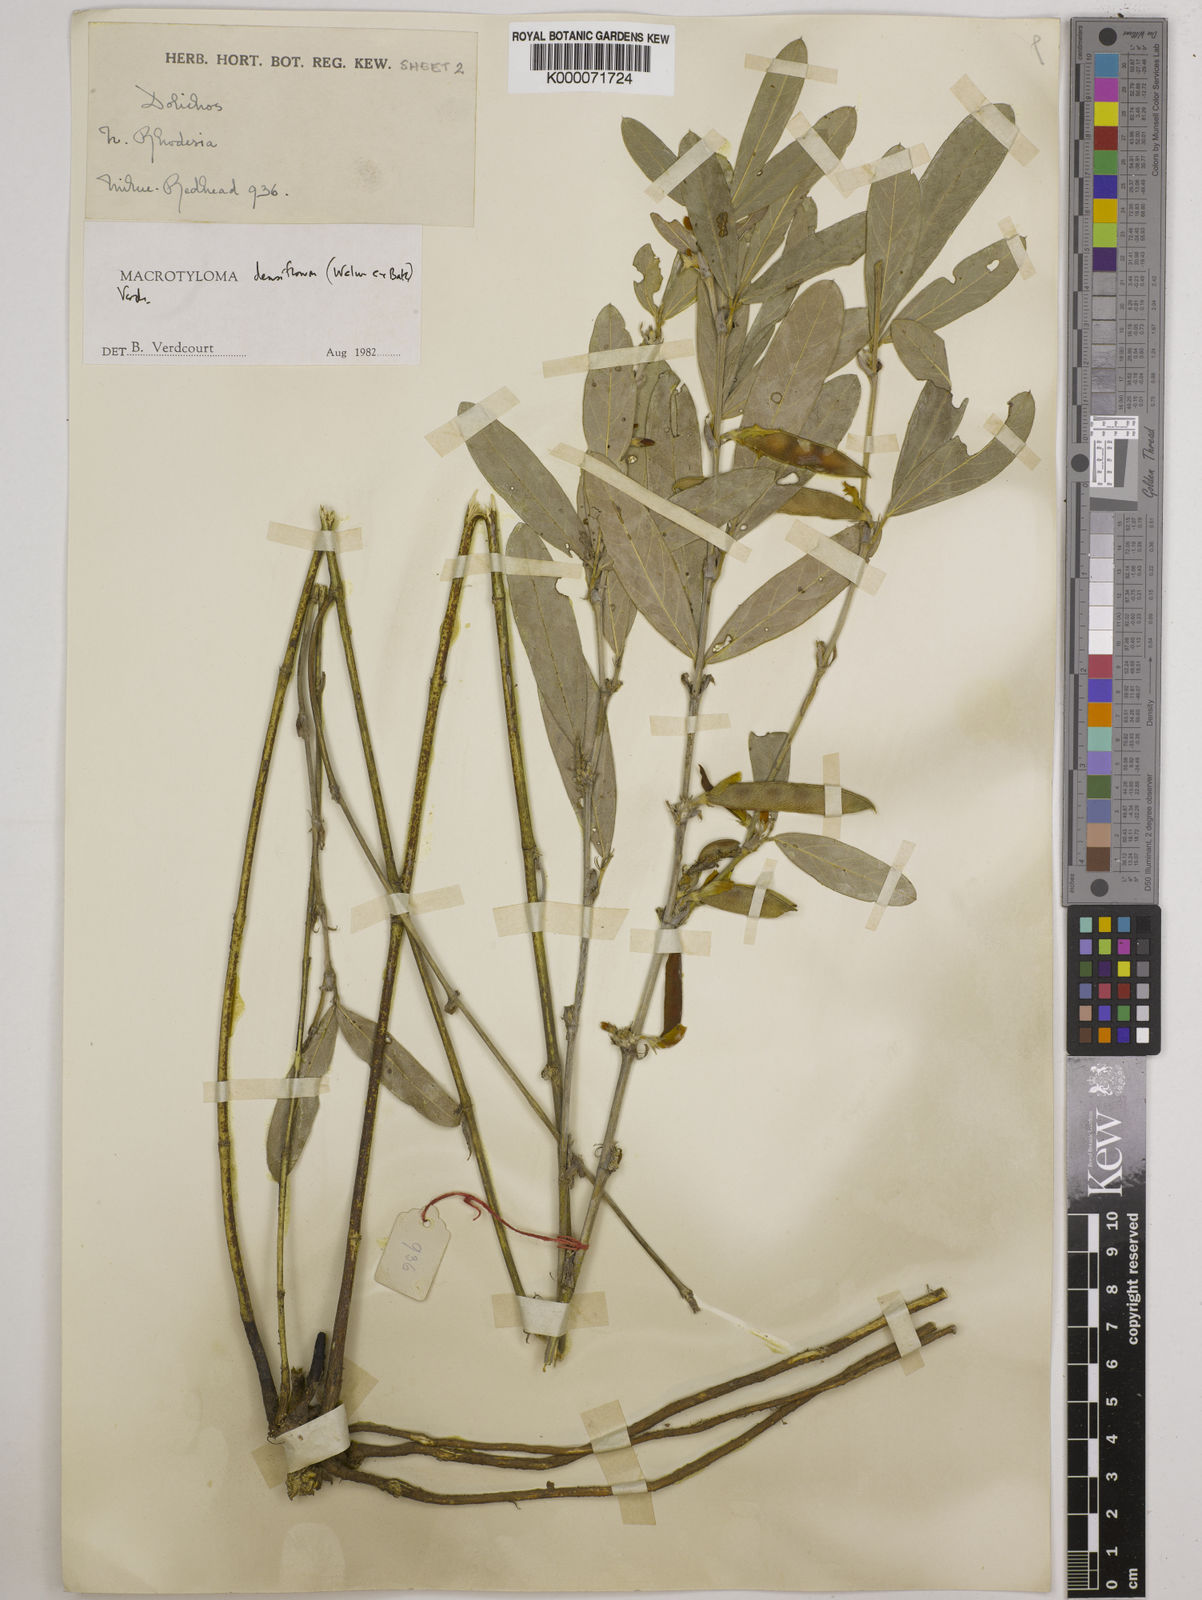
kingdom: Plantae
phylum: Tracheophyta
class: Magnoliopsida
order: Fabales
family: Fabaceae
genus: Macrotyloma
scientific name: Macrotyloma densiflorum
